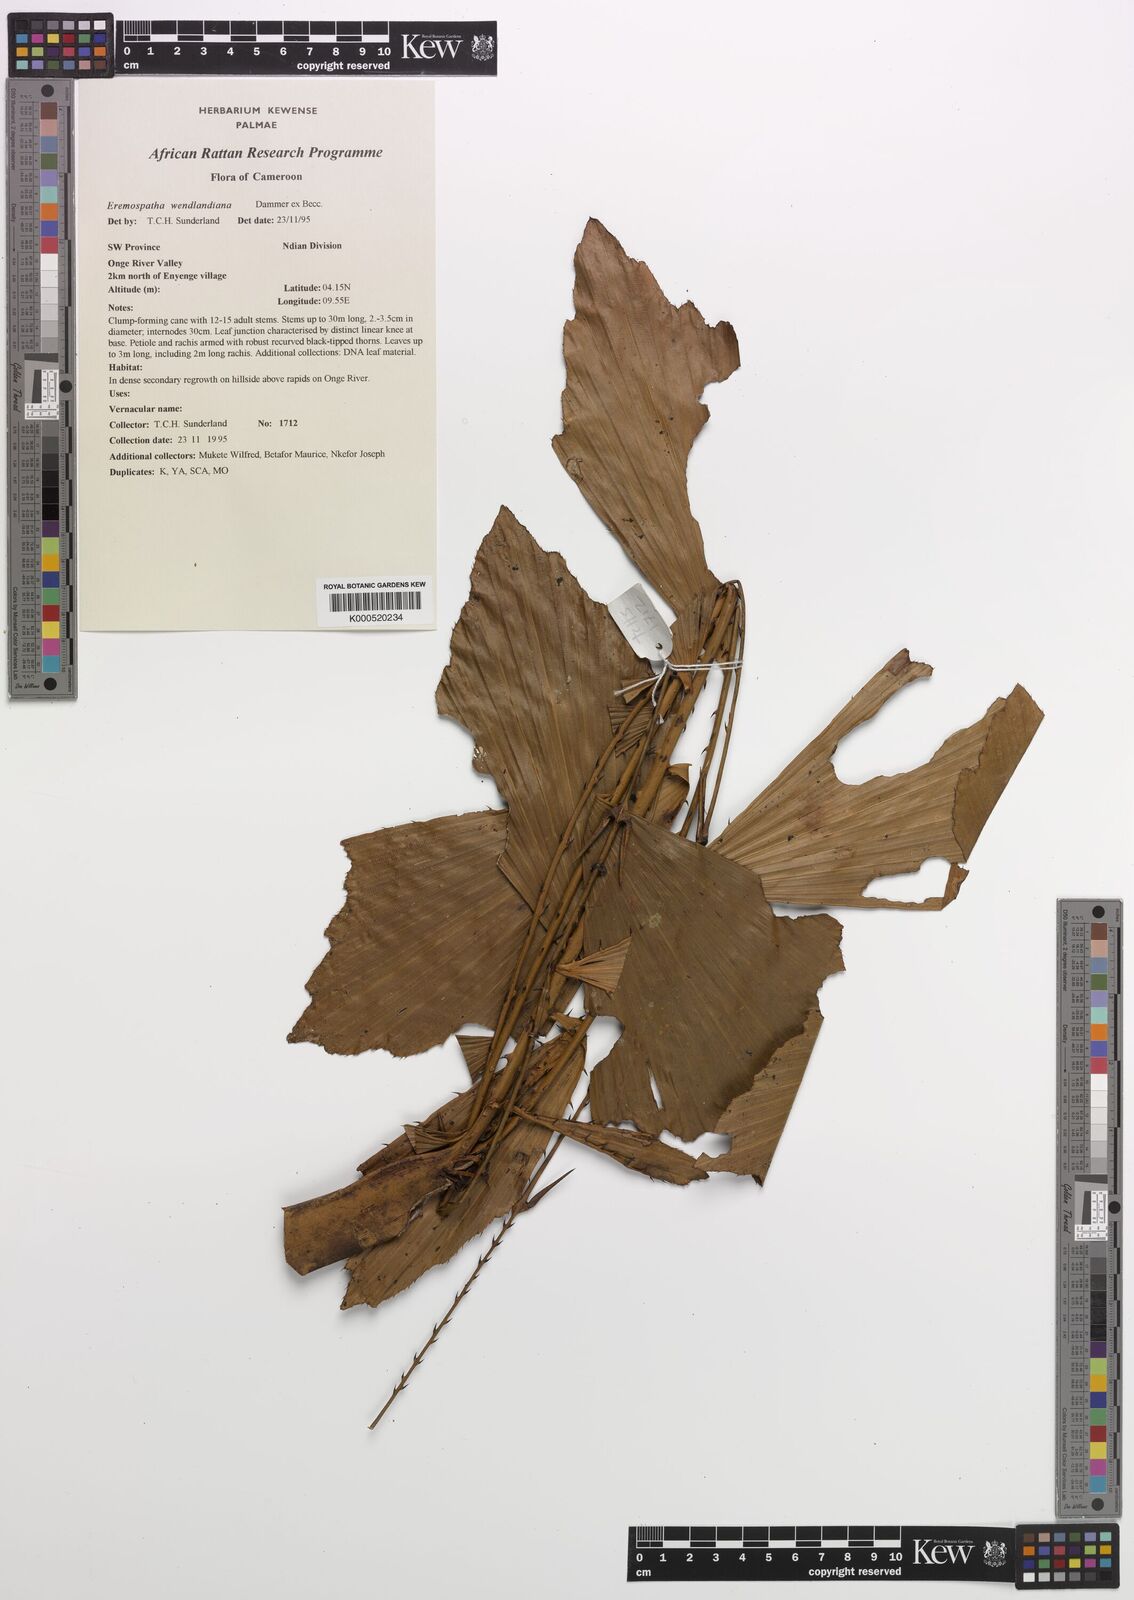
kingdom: Plantae
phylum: Tracheophyta
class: Liliopsida
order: Arecales
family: Arecaceae
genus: Eremospatha
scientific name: Eremospatha wendlandiana
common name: Rattan
